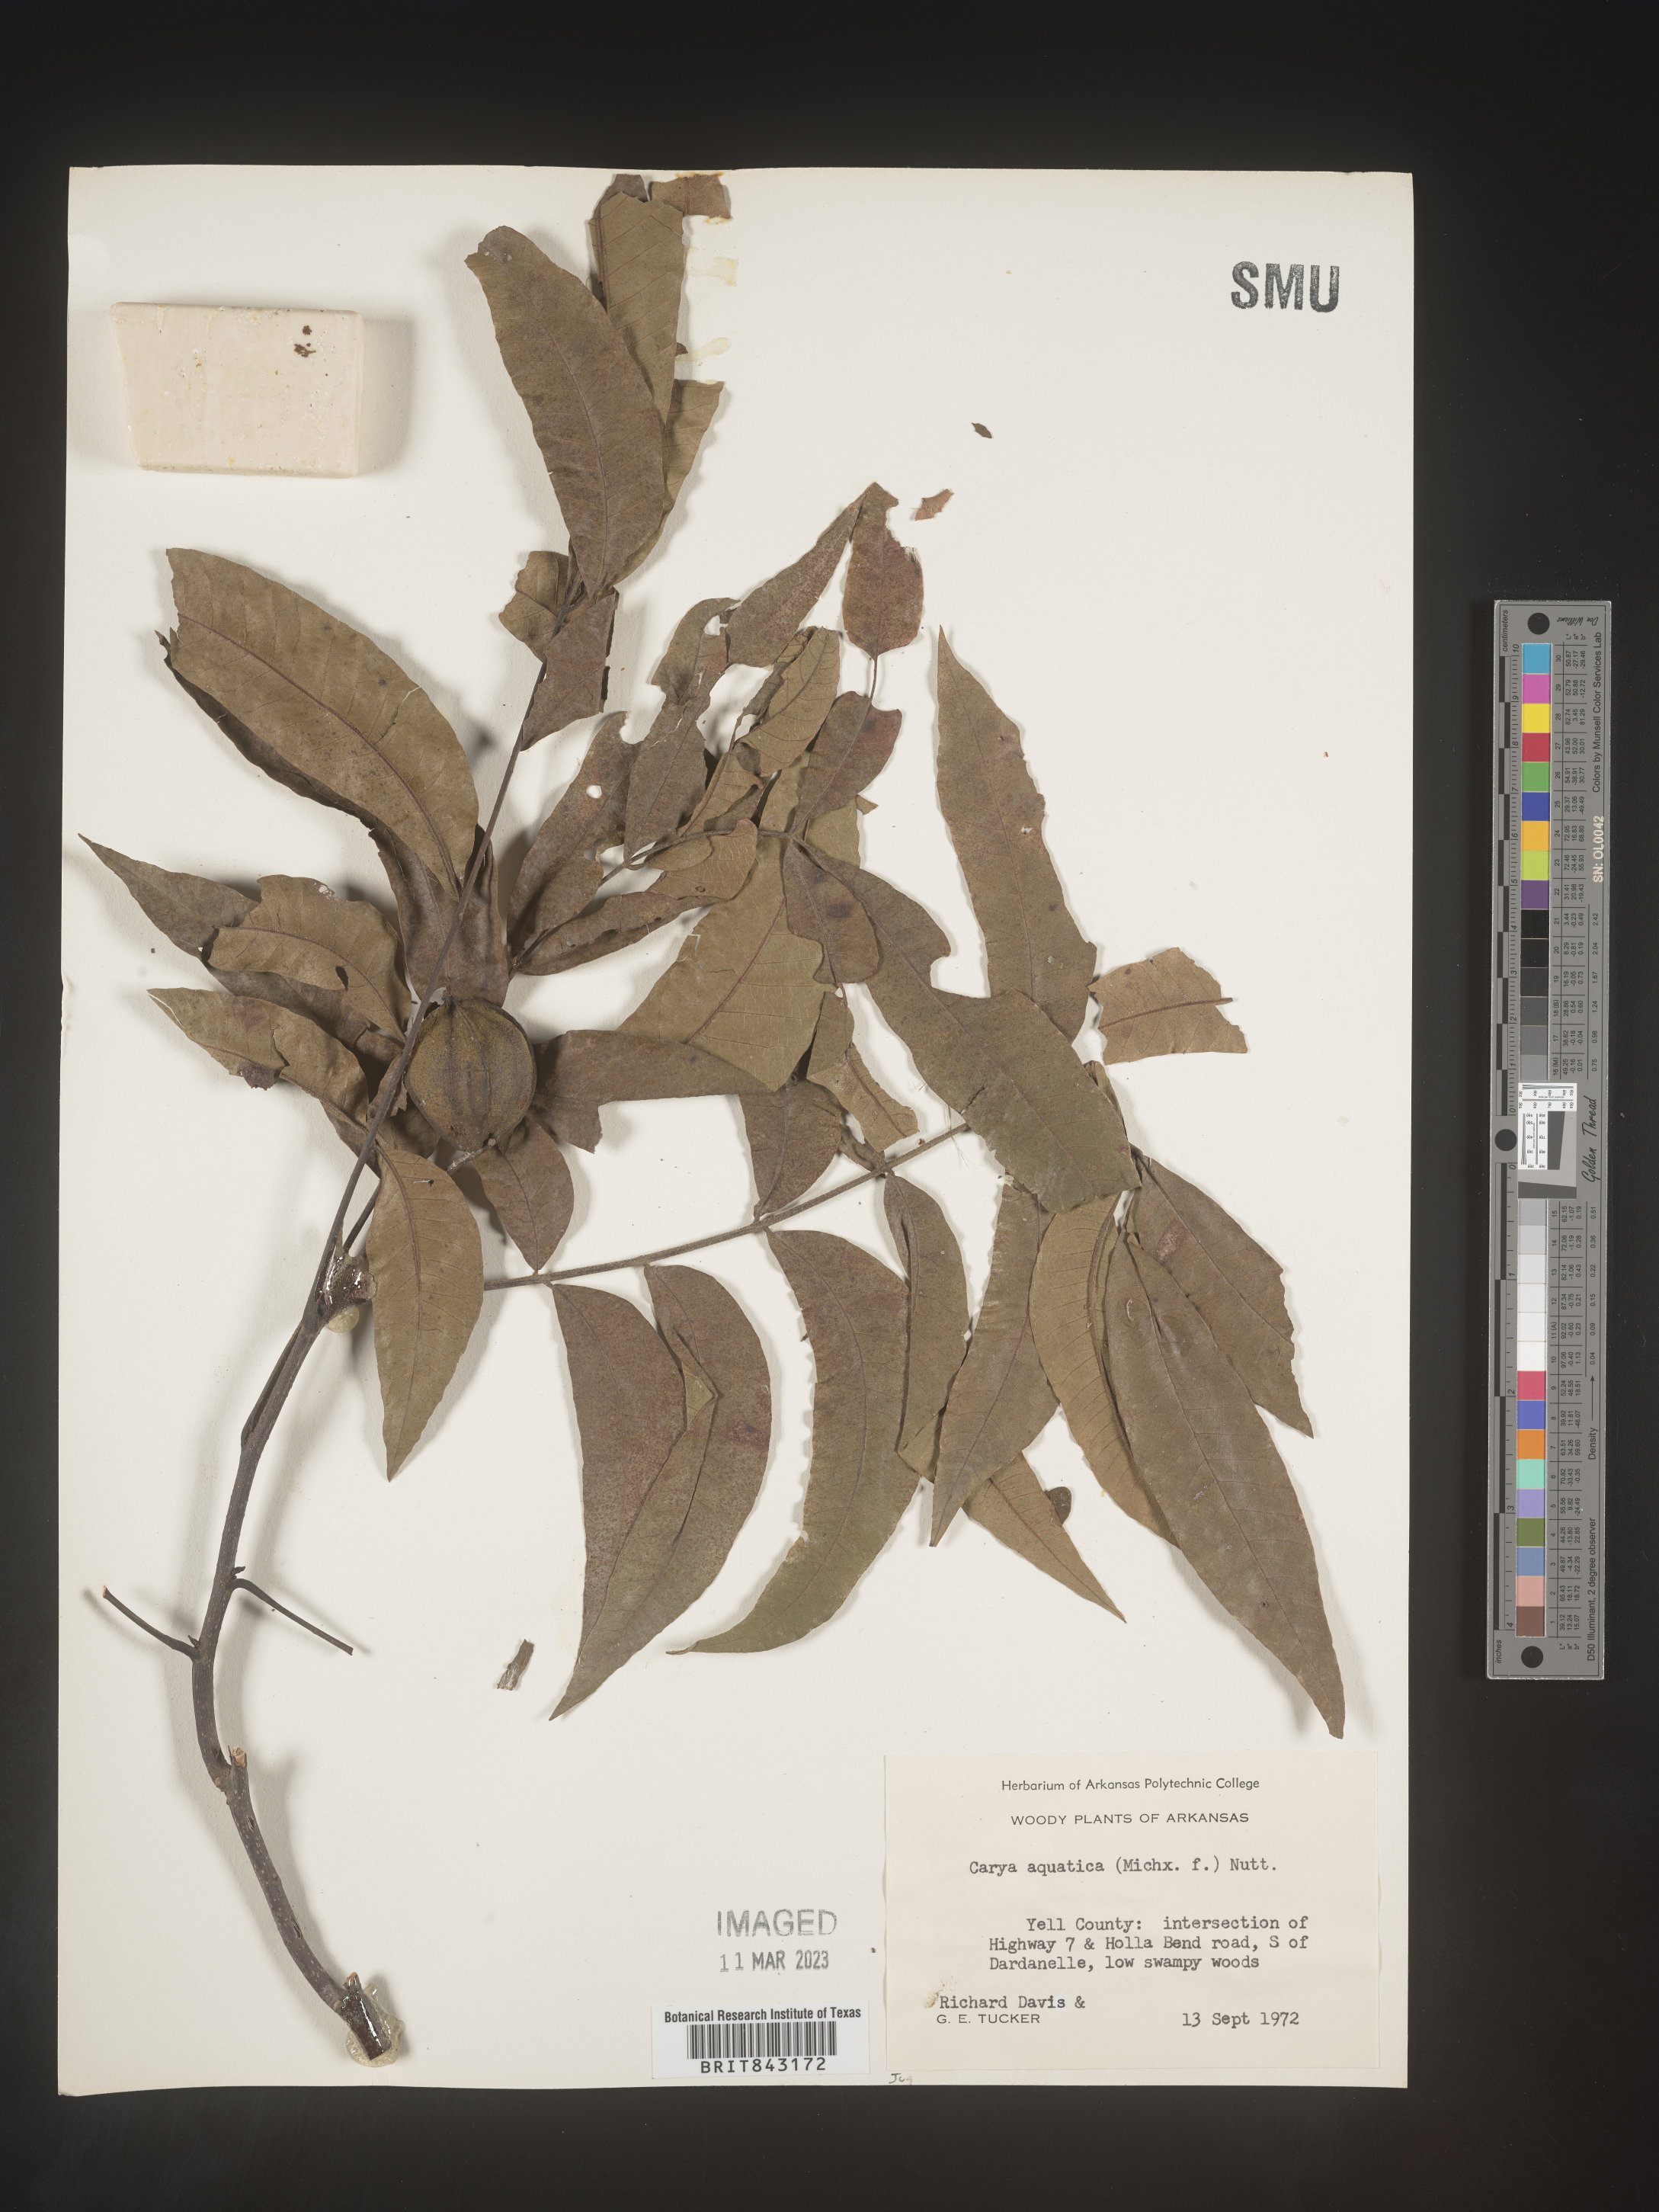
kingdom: Plantae
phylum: Tracheophyta
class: Magnoliopsida
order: Fagales
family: Juglandaceae
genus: Carya
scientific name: Carya aquatica
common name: Water hickory
